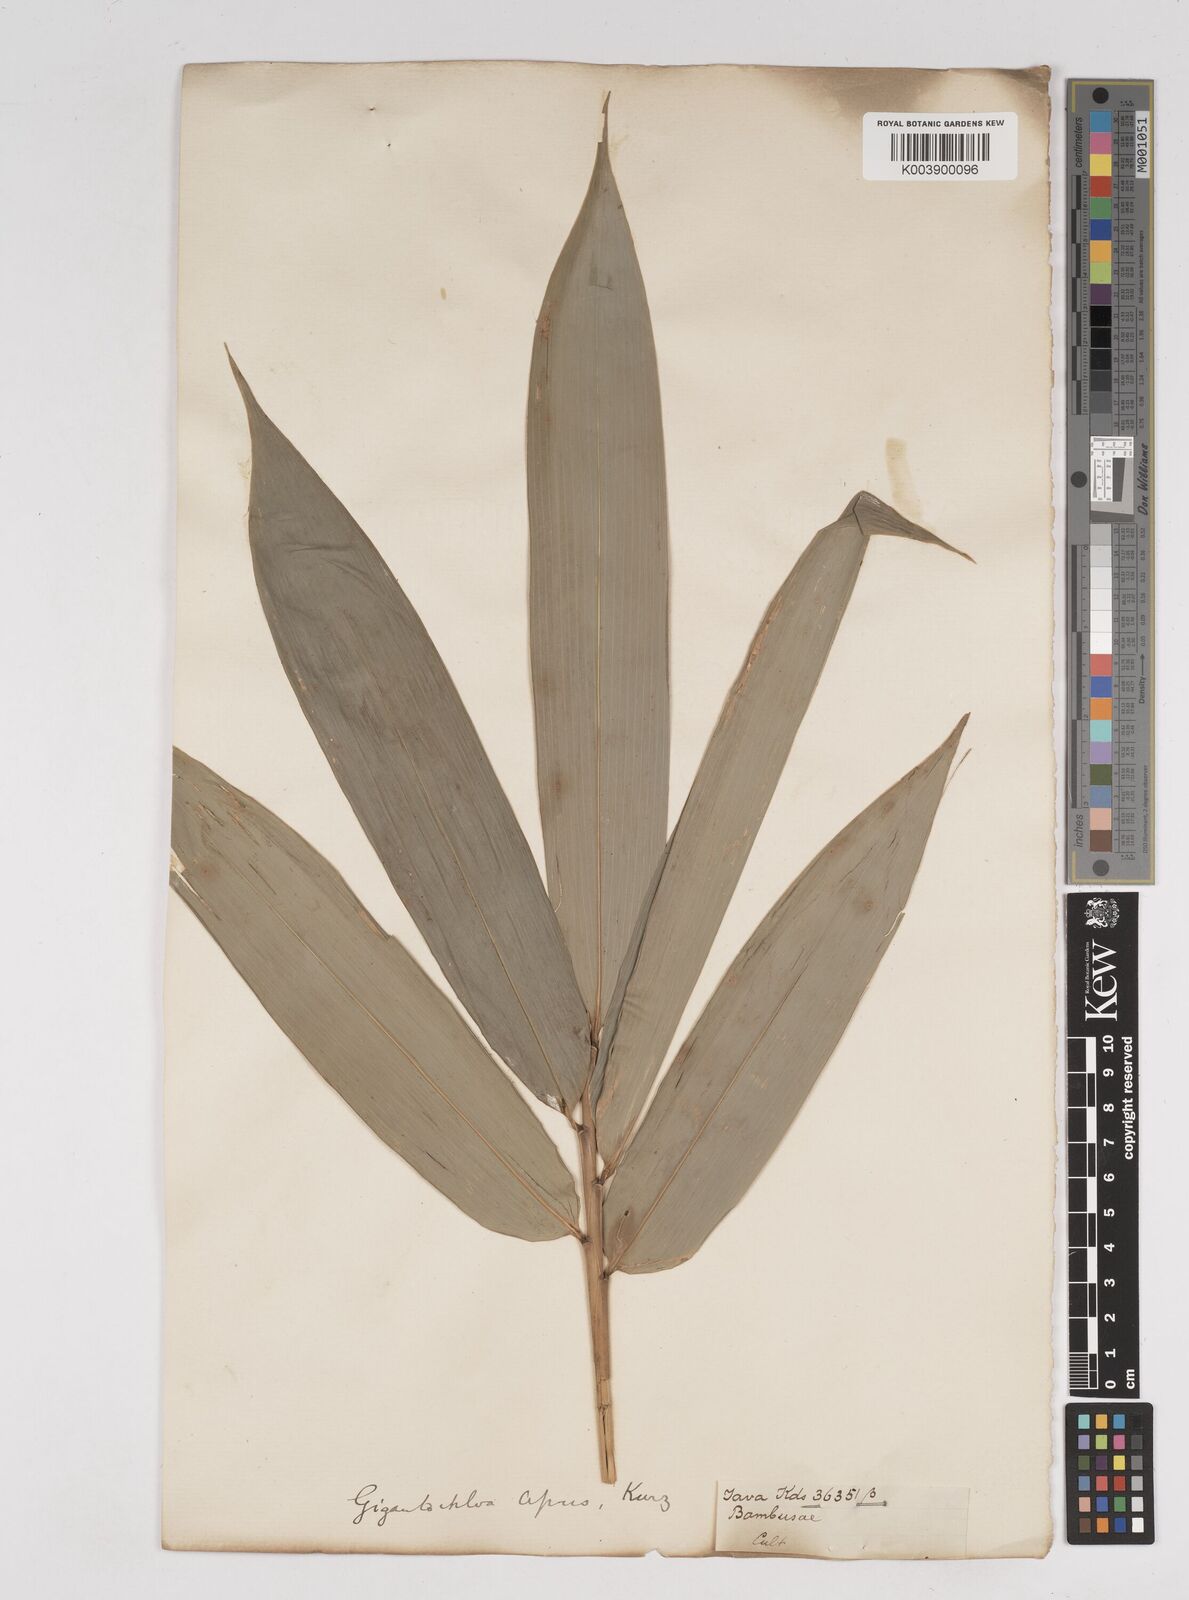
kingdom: Plantae
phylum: Tracheophyta
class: Liliopsida
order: Poales
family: Poaceae
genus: Gigantochloa
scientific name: Gigantochloa apus
